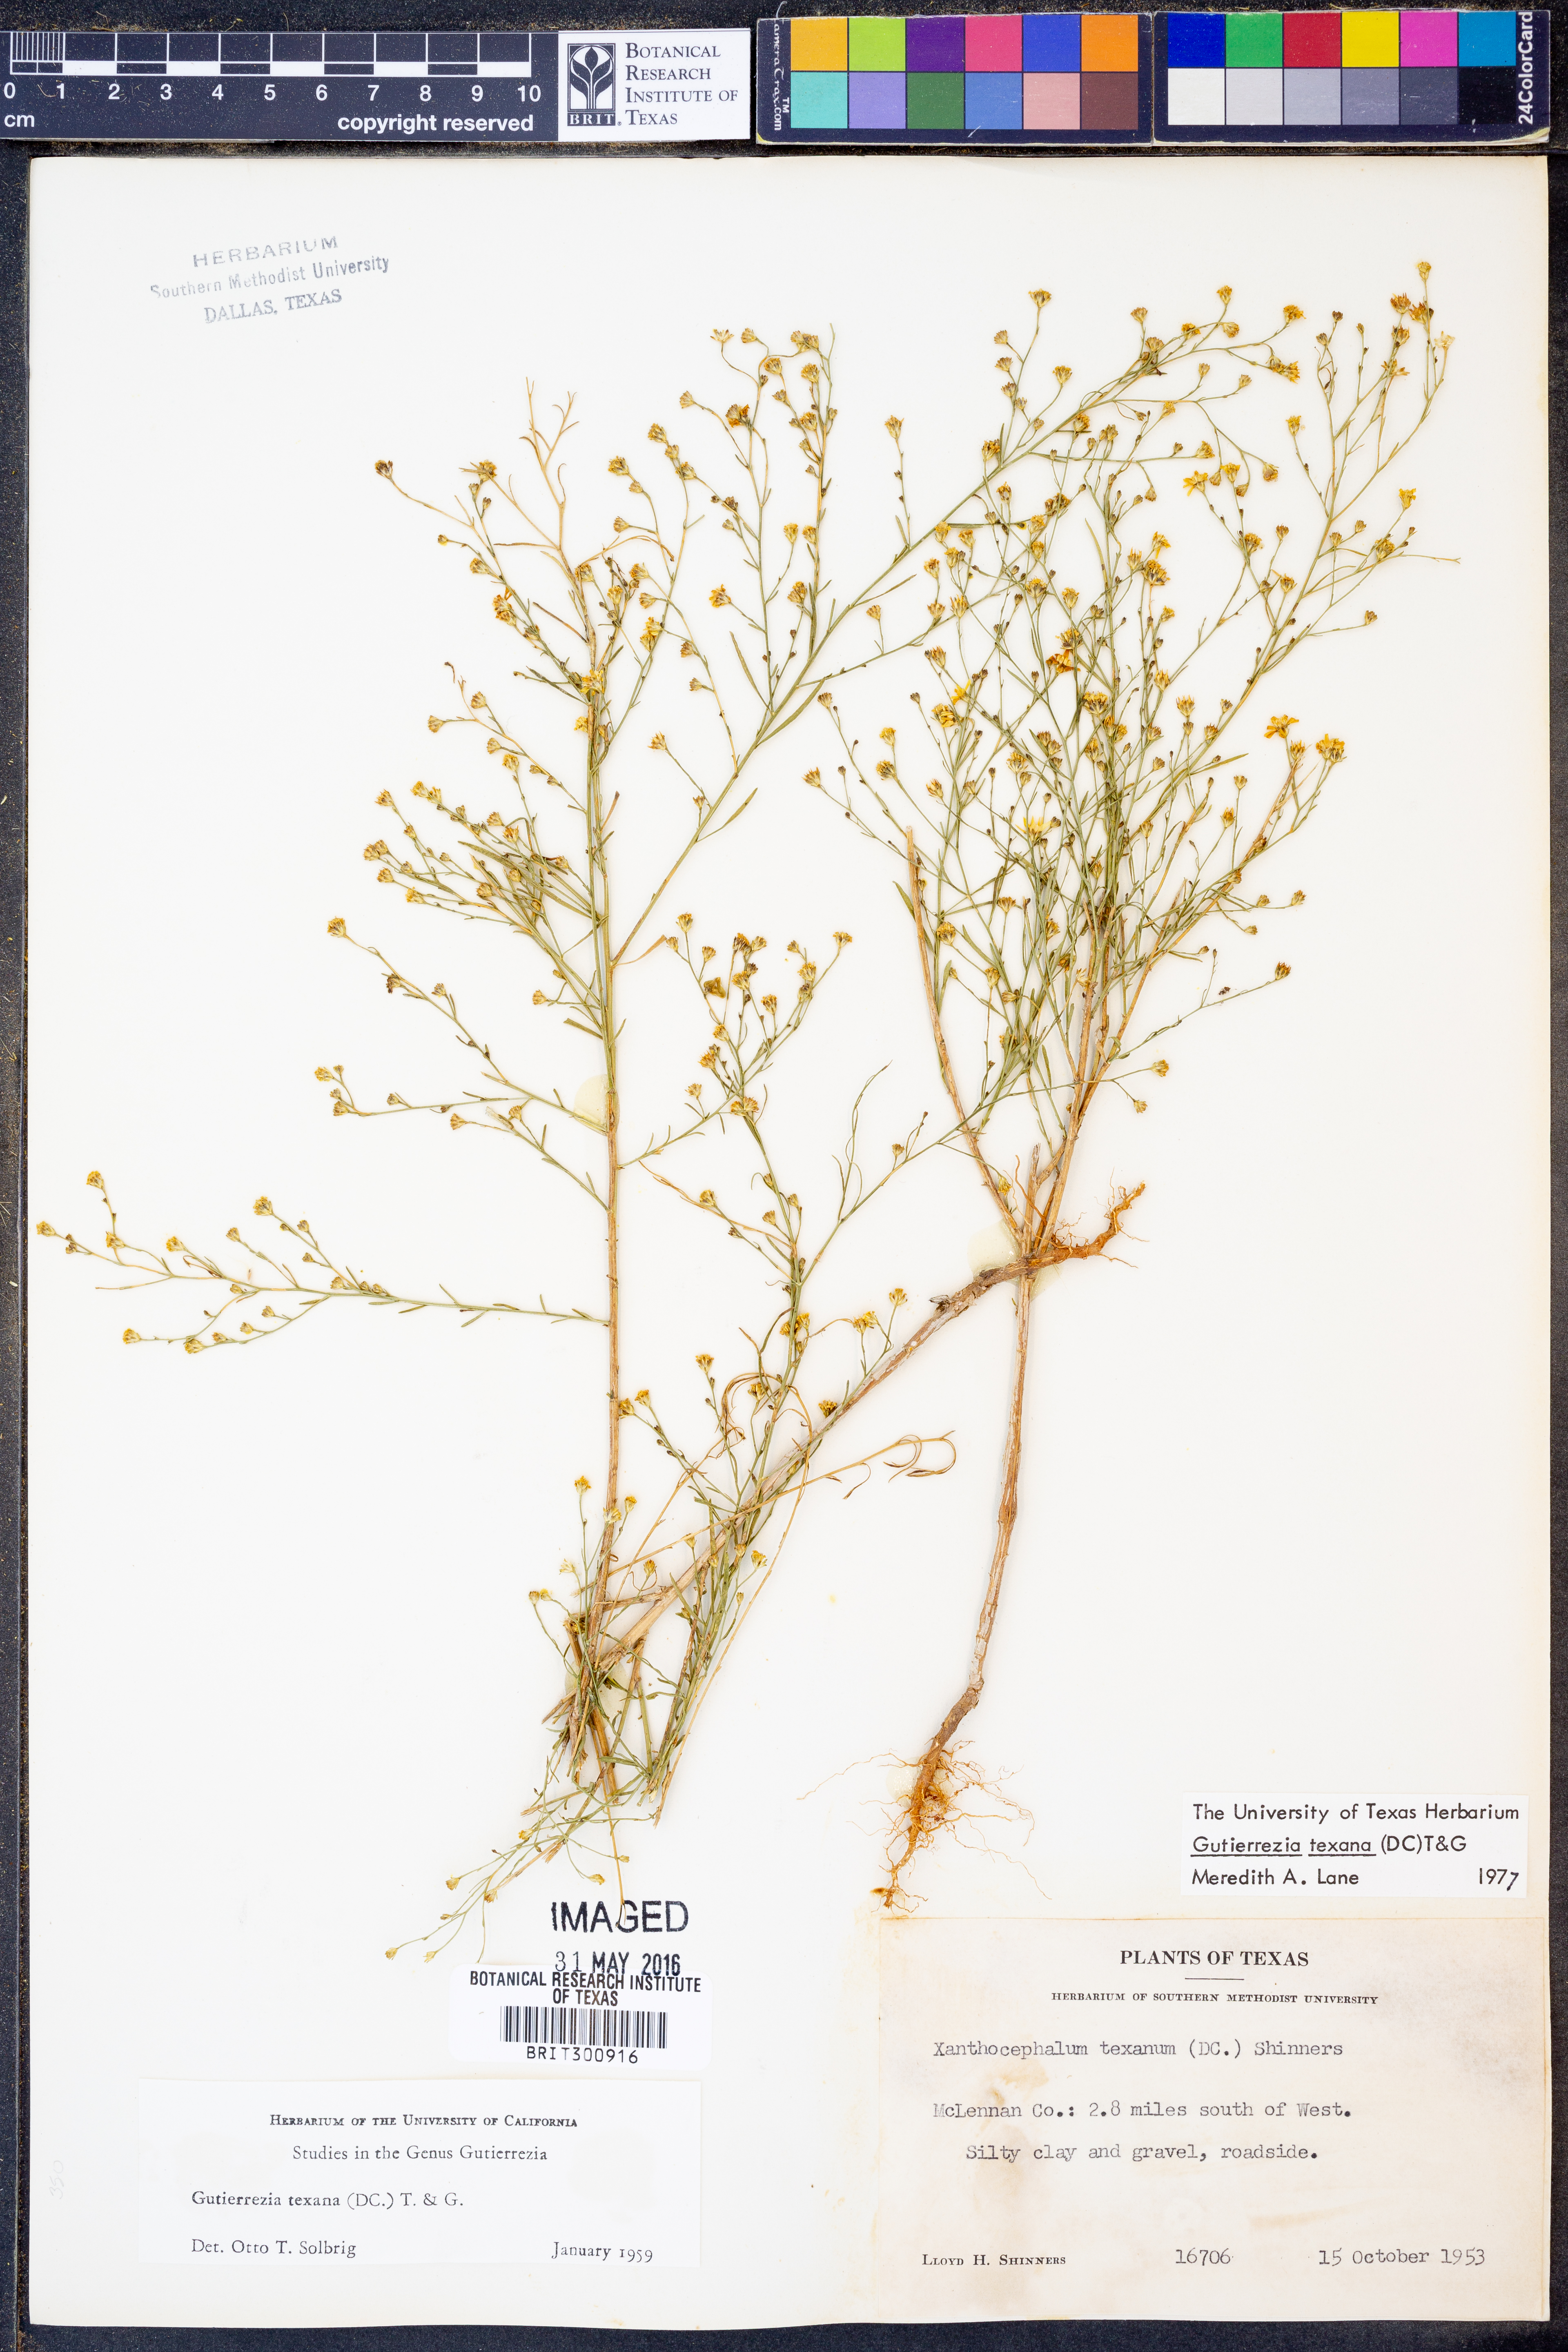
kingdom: Plantae
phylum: Tracheophyta
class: Magnoliopsida
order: Asterales
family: Asteraceae
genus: Gutierrezia
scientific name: Gutierrezia texana
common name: Texas snakeweed
